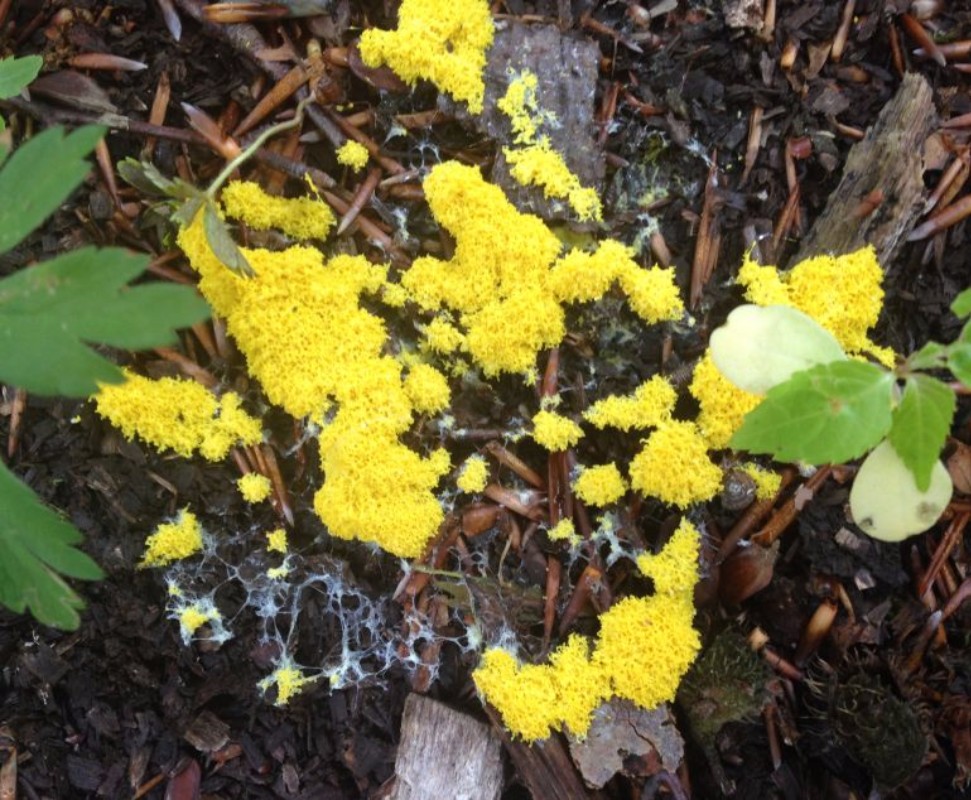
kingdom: Protozoa
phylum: Mycetozoa
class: Myxomycetes
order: Physarales
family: Physaraceae
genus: Fuligo
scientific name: Fuligo septica
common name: gul troldsmør
